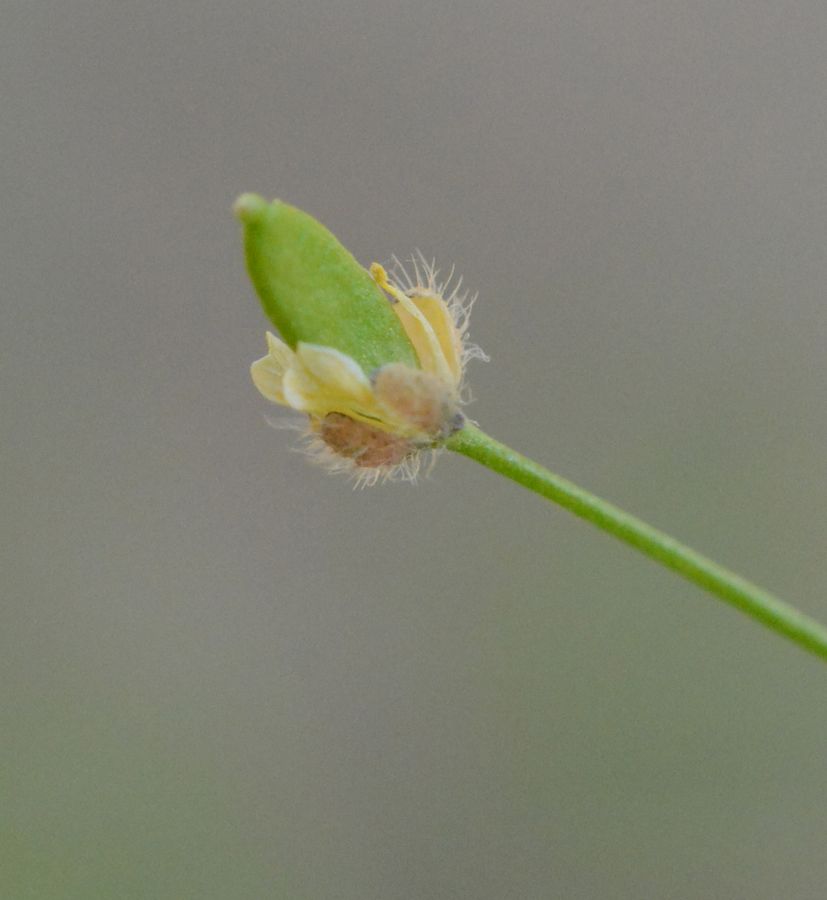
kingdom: Plantae
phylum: Tracheophyta
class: Magnoliopsida
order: Brassicales
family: Brassicaceae
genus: Draba
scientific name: Draba verna
